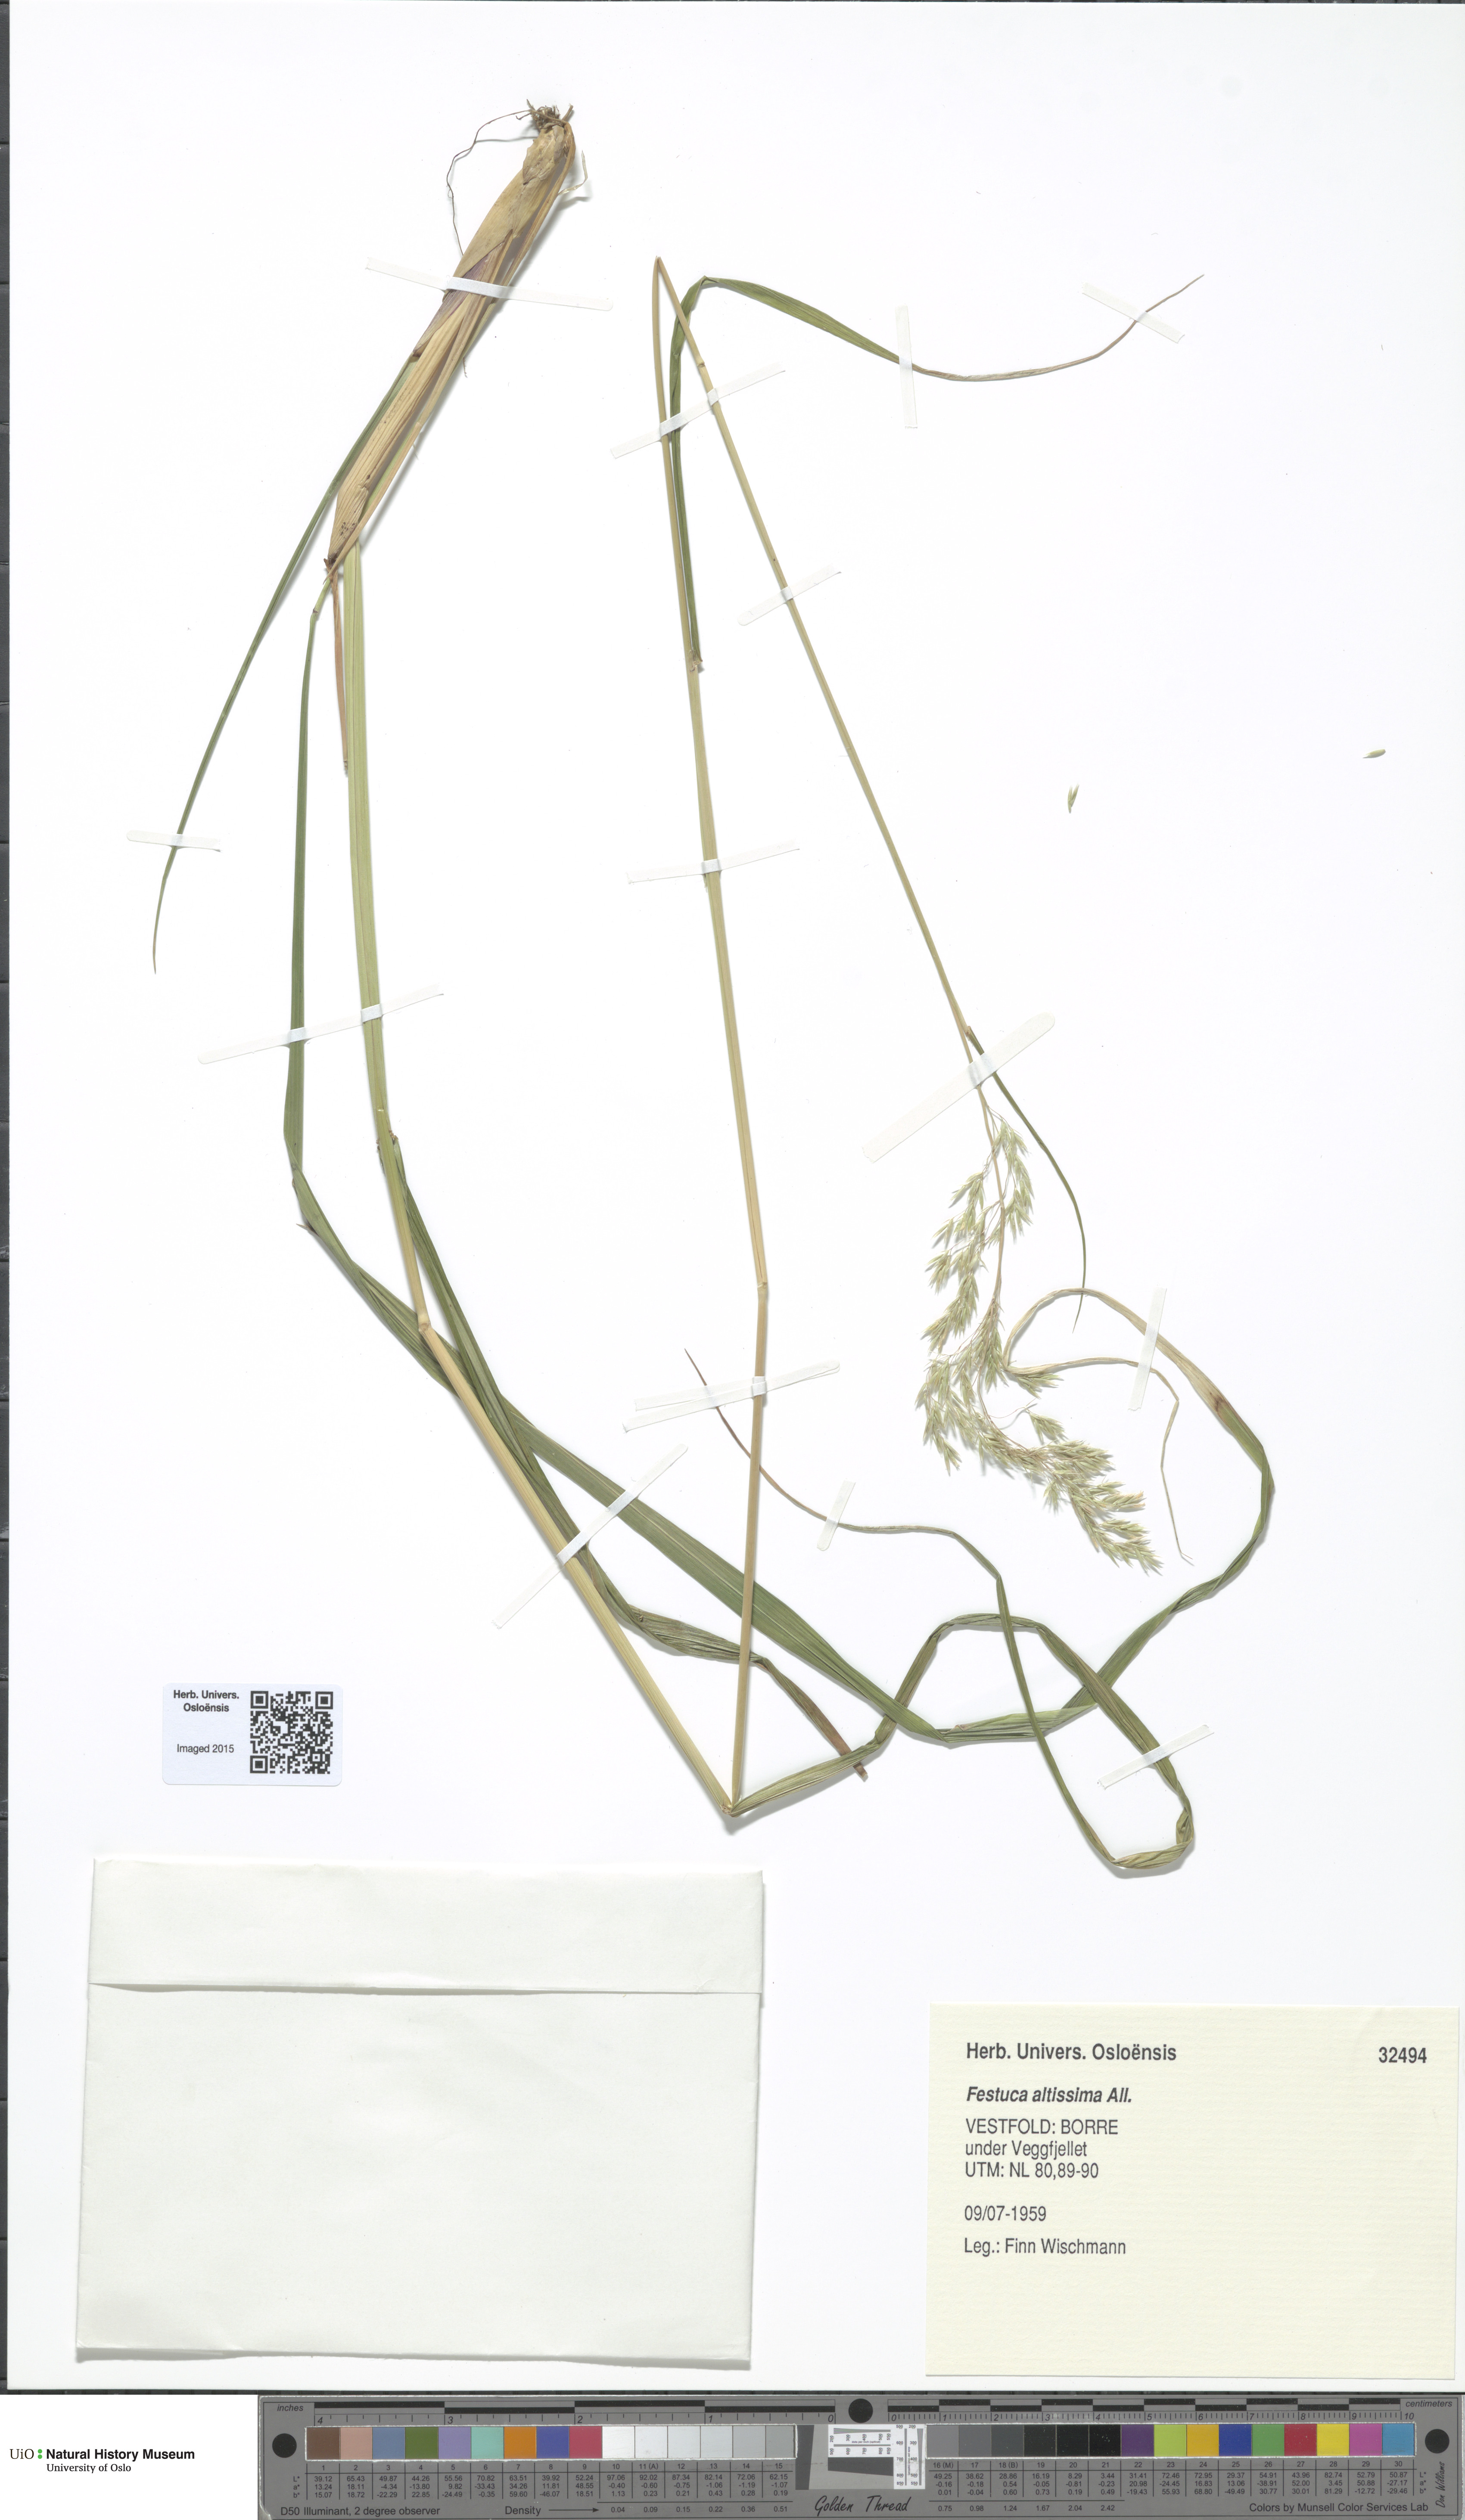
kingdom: Plantae
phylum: Tracheophyta
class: Liliopsida
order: Poales
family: Poaceae
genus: Festuca
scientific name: Festuca altissima
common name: Wood fescue
